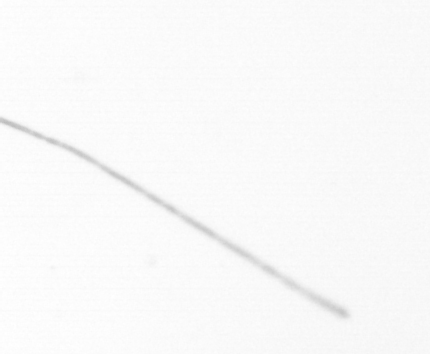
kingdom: Chromista
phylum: Ochrophyta
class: Bacillariophyceae
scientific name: Bacillariophyceae
